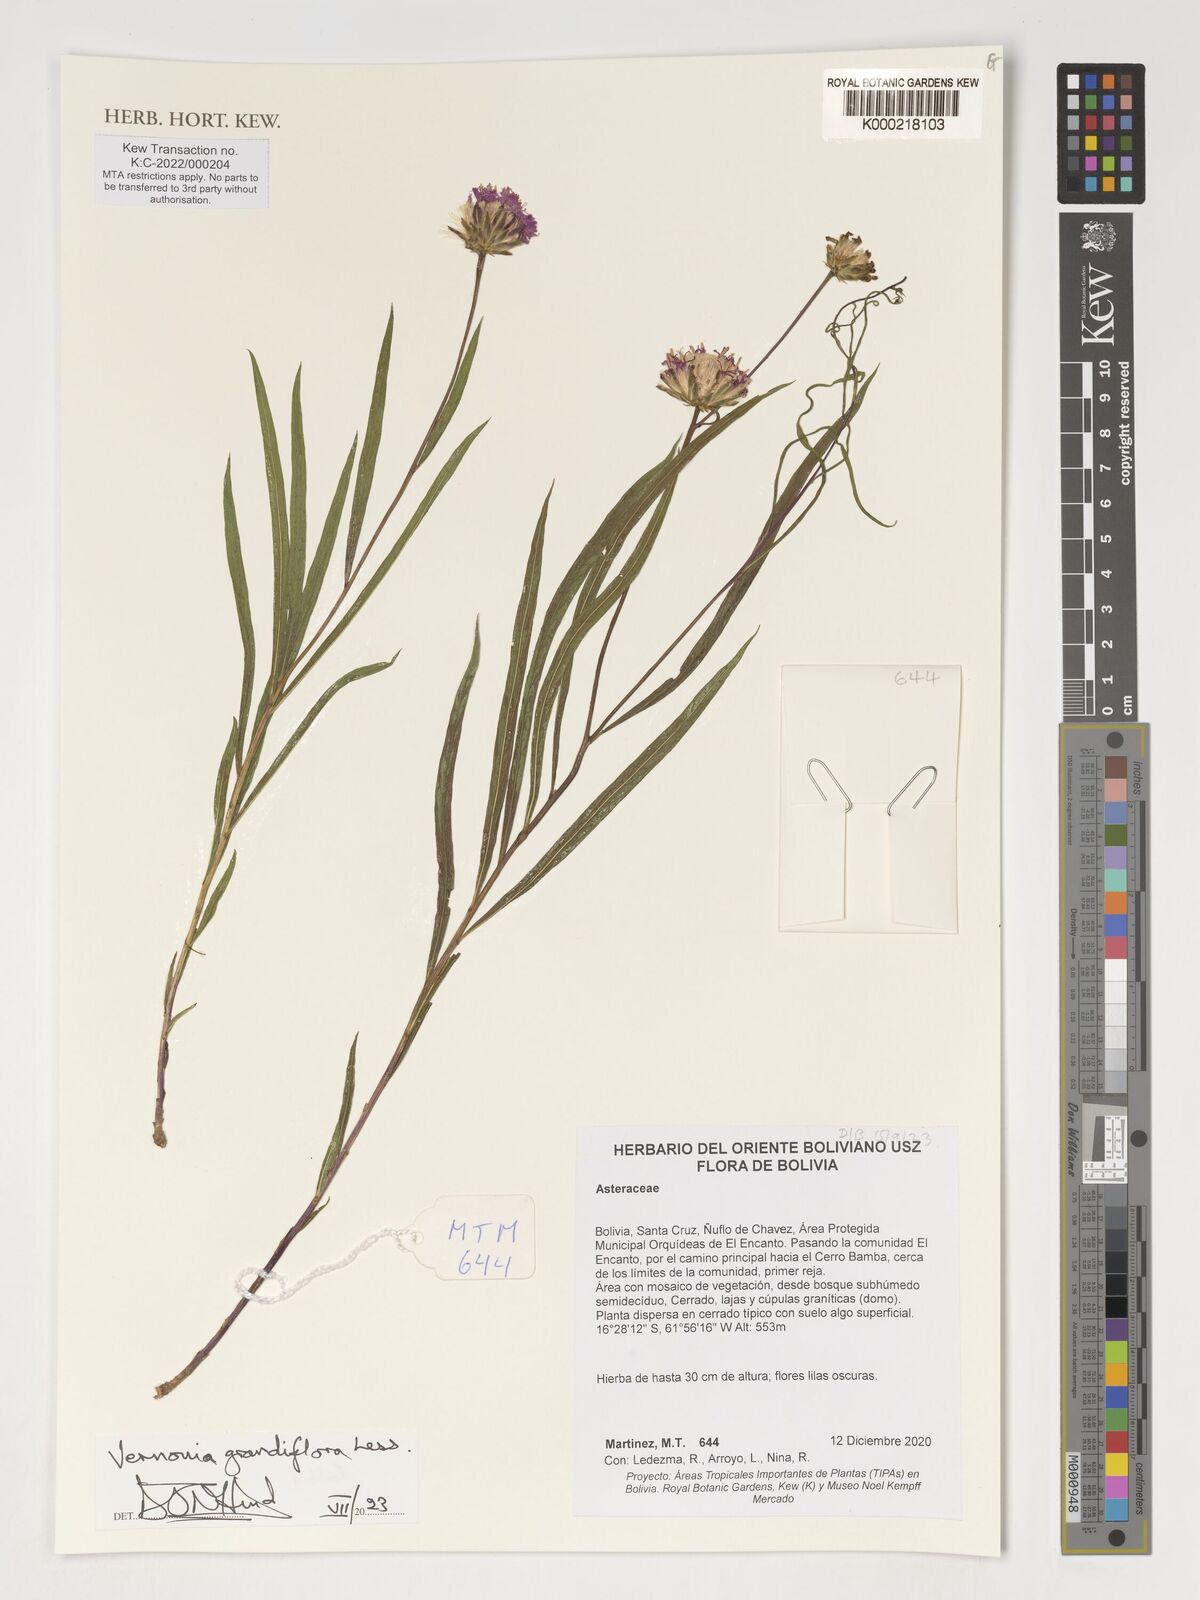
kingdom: Plantae
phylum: Tracheophyta
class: Magnoliopsida
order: Asterales
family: Asteraceae
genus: Lessingianthus
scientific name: Lessingianthus grandiflorus
